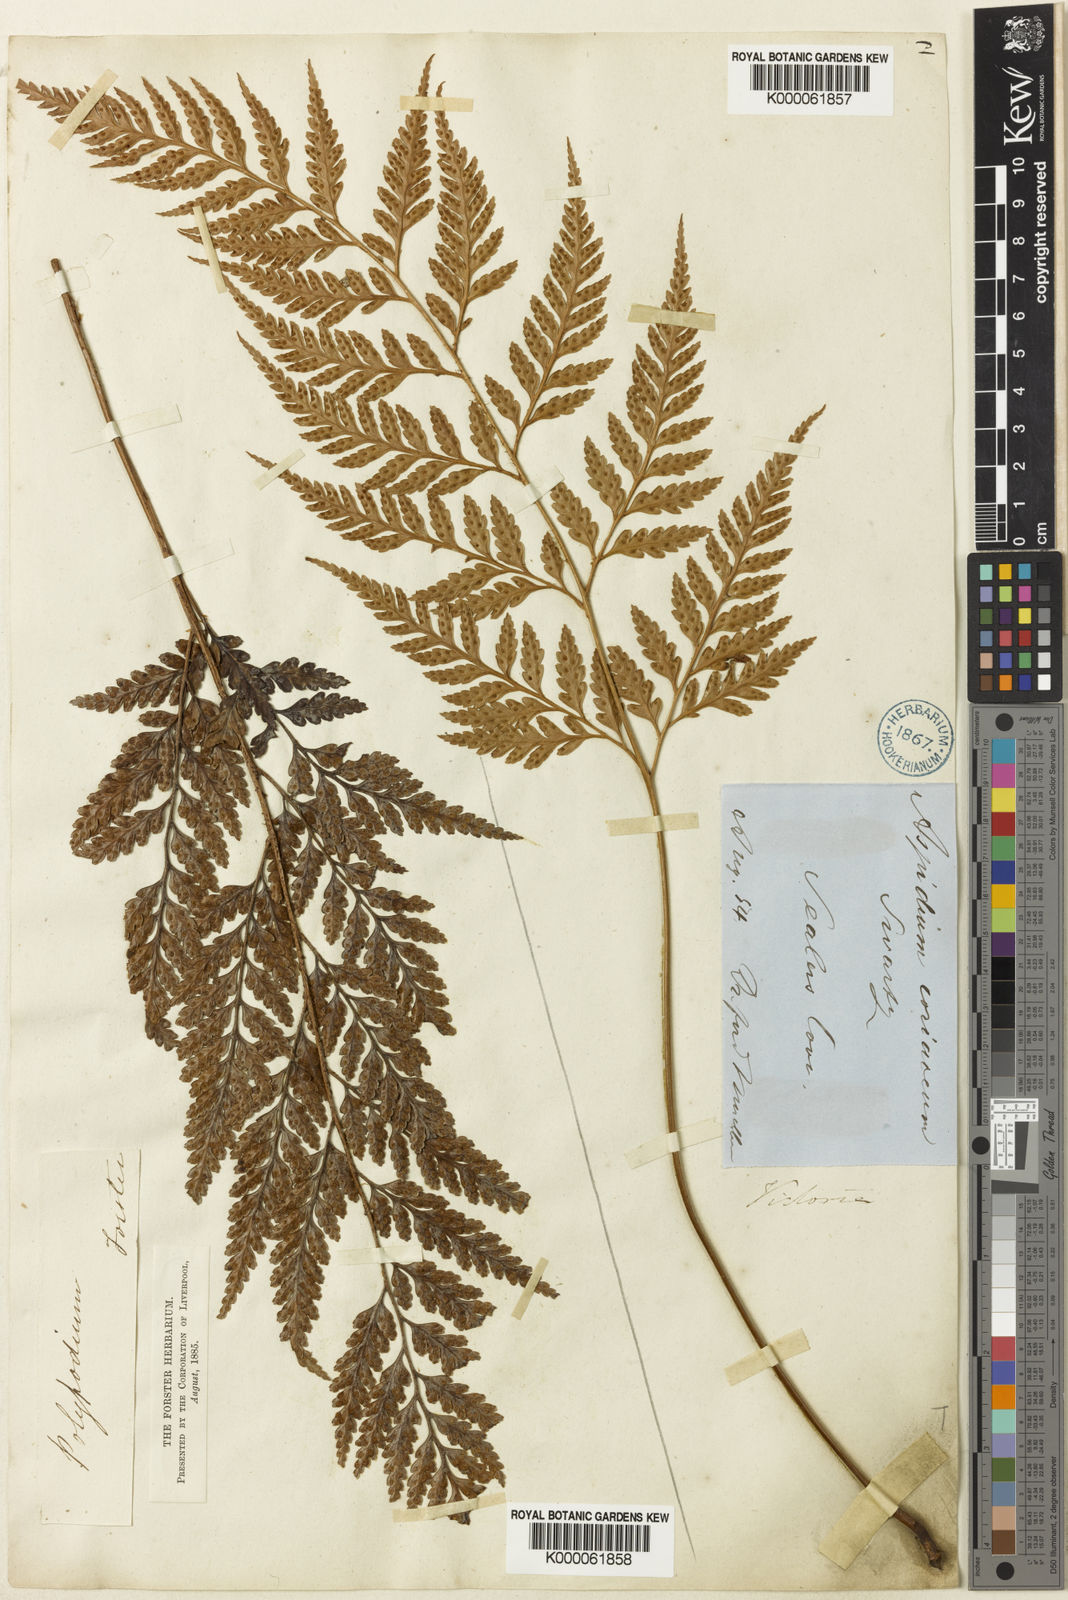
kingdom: Plantae
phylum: Tracheophyta
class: Polypodiopsida
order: Polypodiales
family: Dryopteridaceae
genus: Rumohra
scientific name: Rumohra adiantiformis
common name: Leather fern
